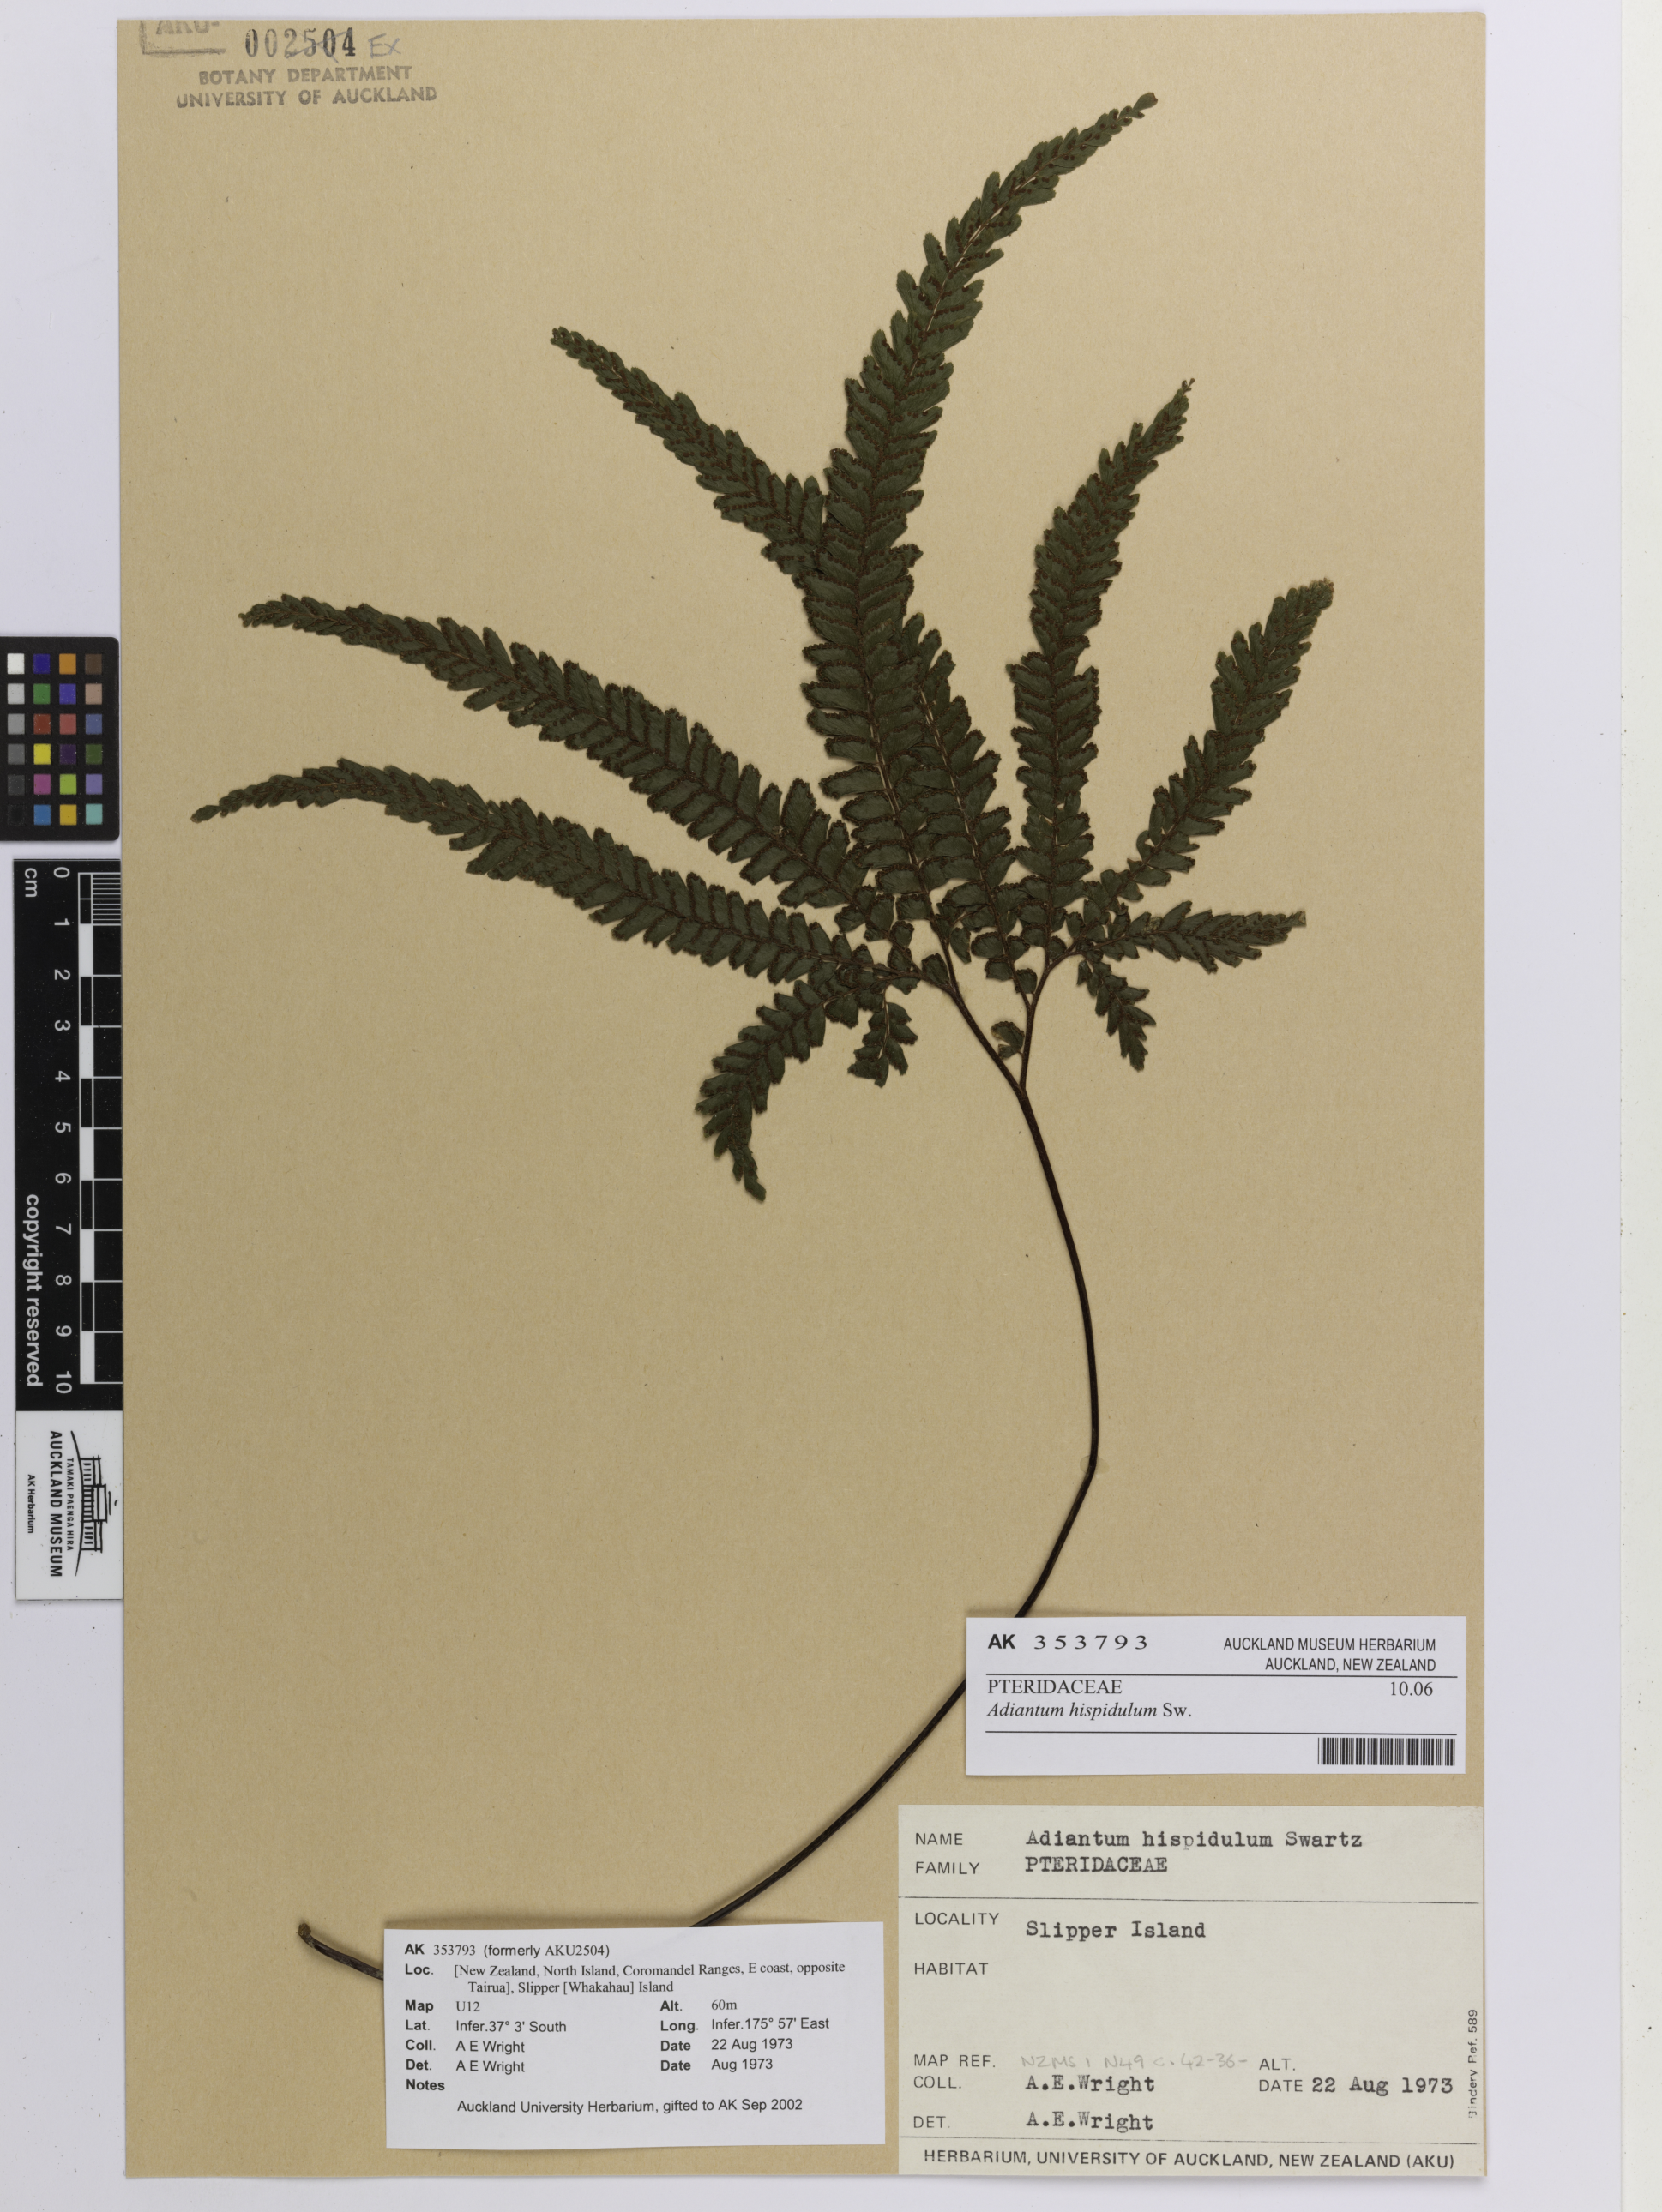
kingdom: Plantae
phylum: Tracheophyta
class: Polypodiopsida
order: Polypodiales
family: Pteridaceae
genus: Adiantum
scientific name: Adiantum hispidulum
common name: Rough maidenhair
